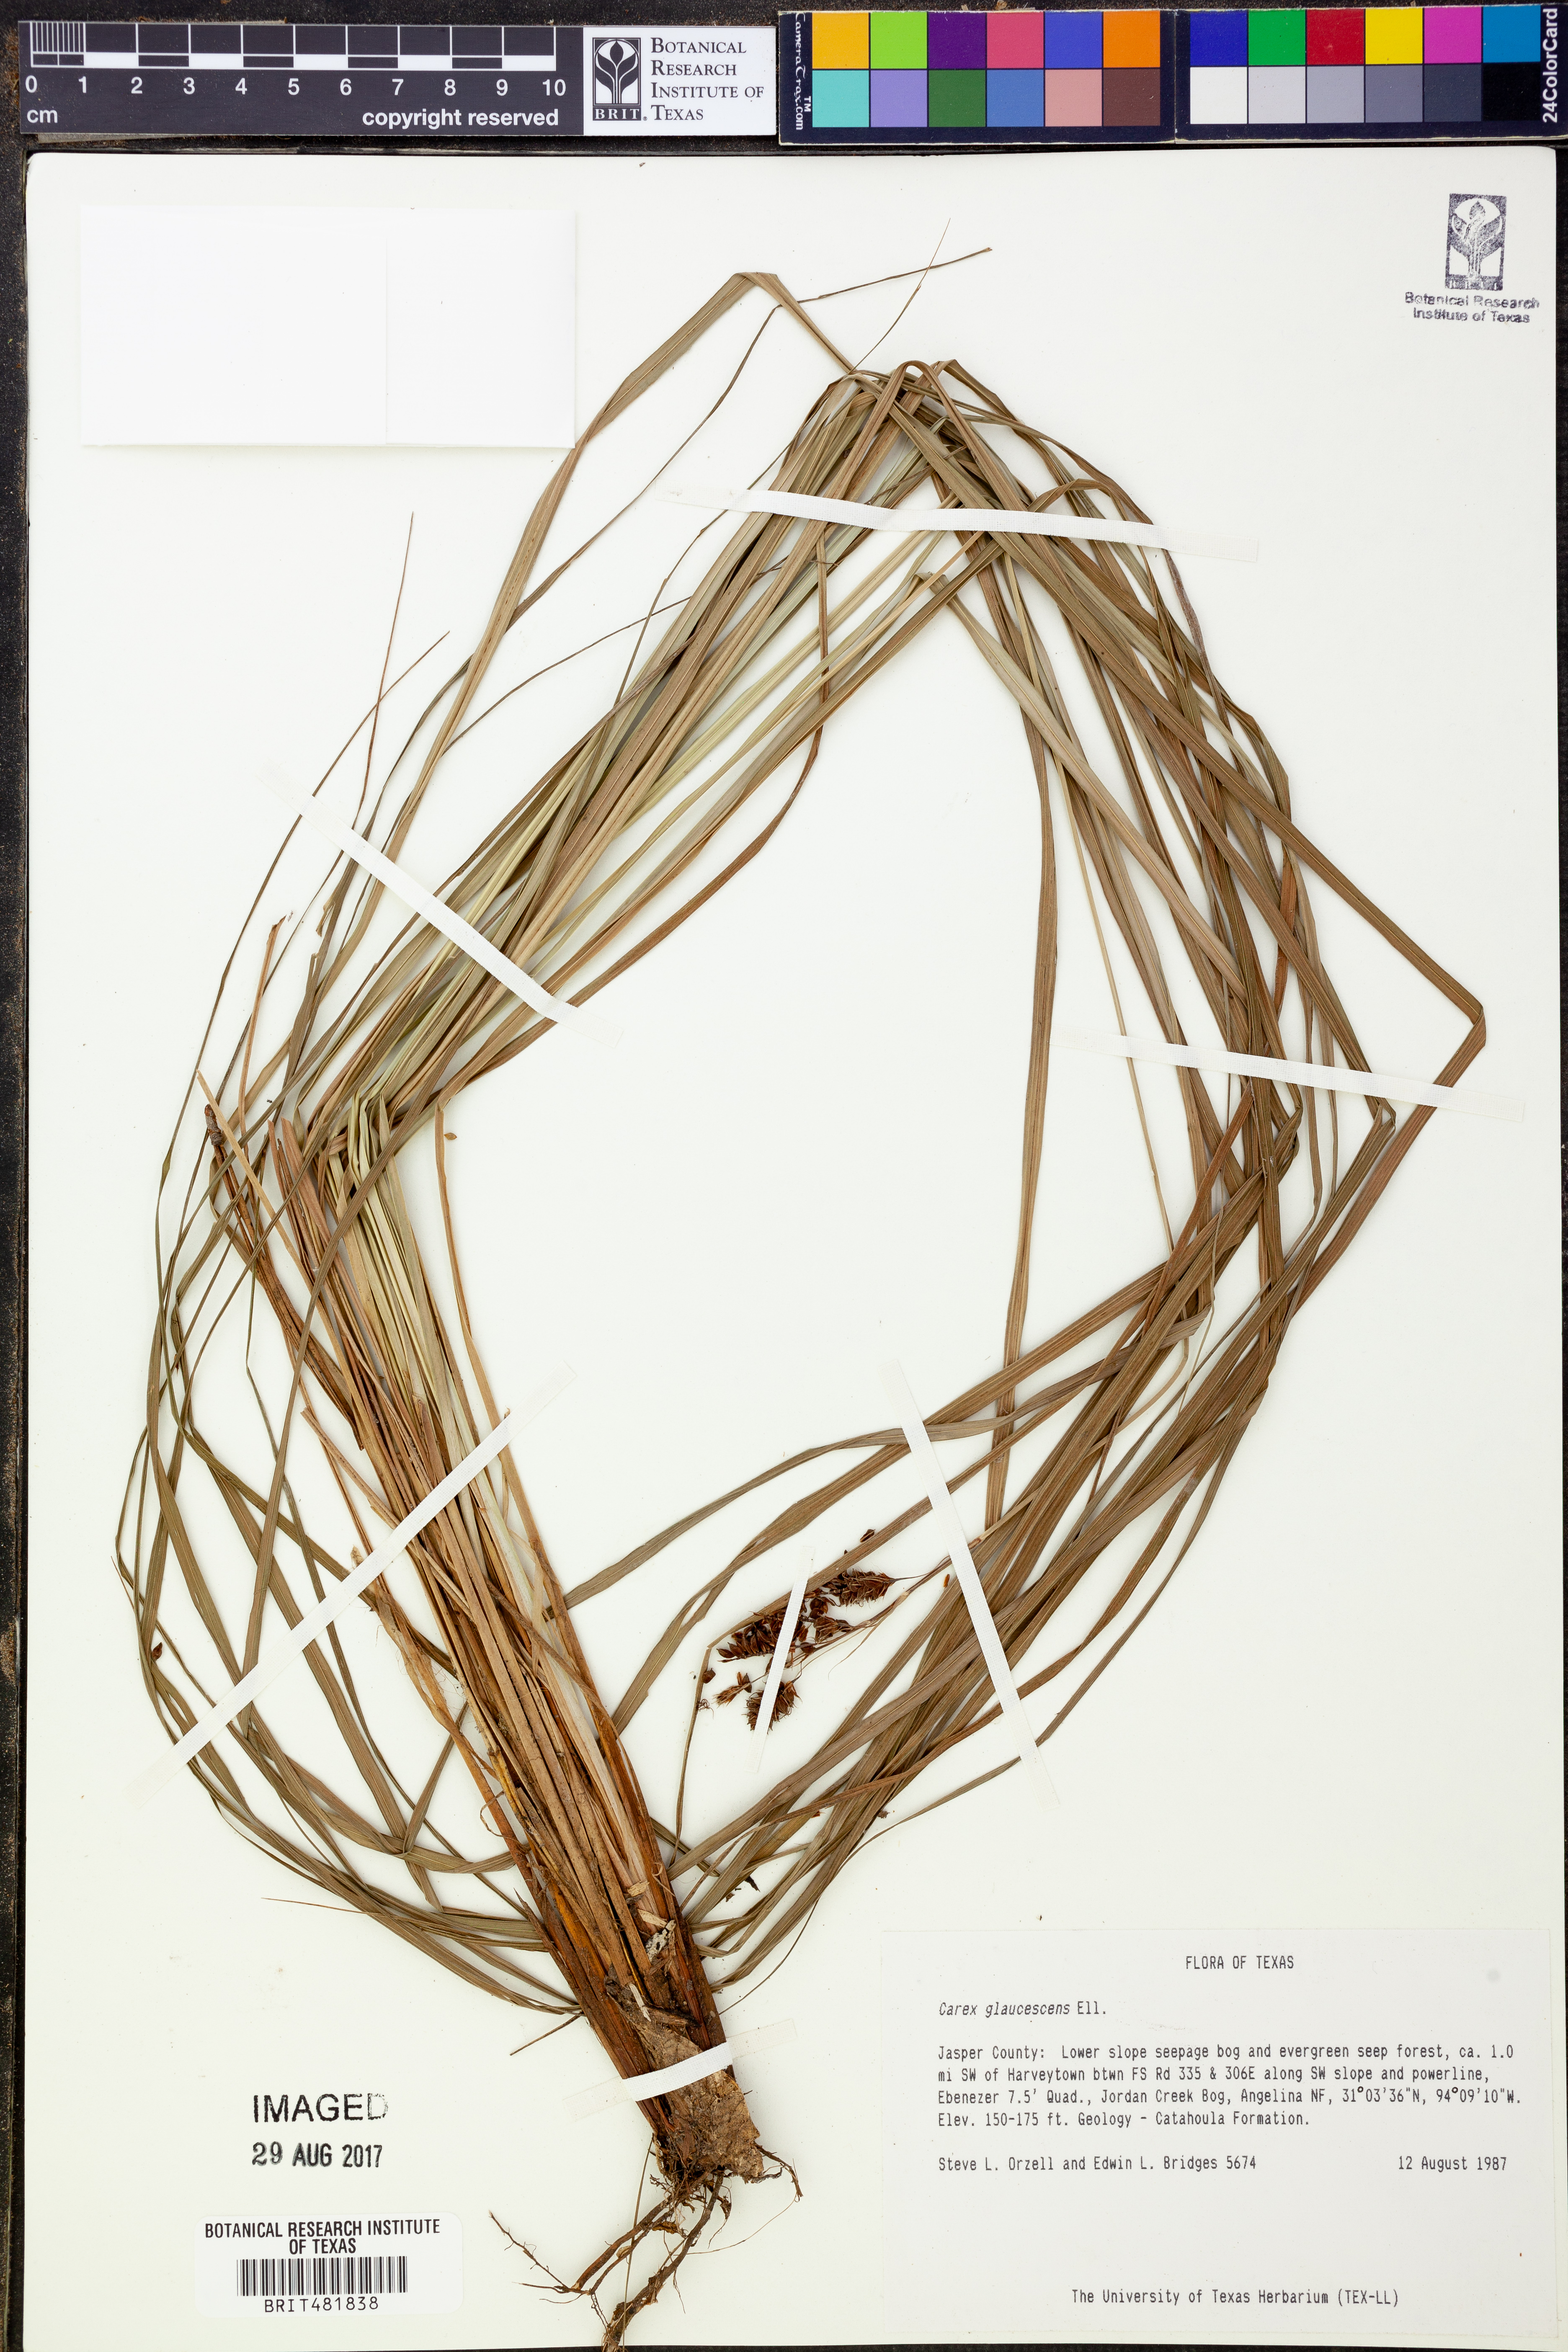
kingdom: Plantae
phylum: Tracheophyta
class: Liliopsida
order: Poales
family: Cyperaceae
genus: Carex
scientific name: Carex glaucescens
